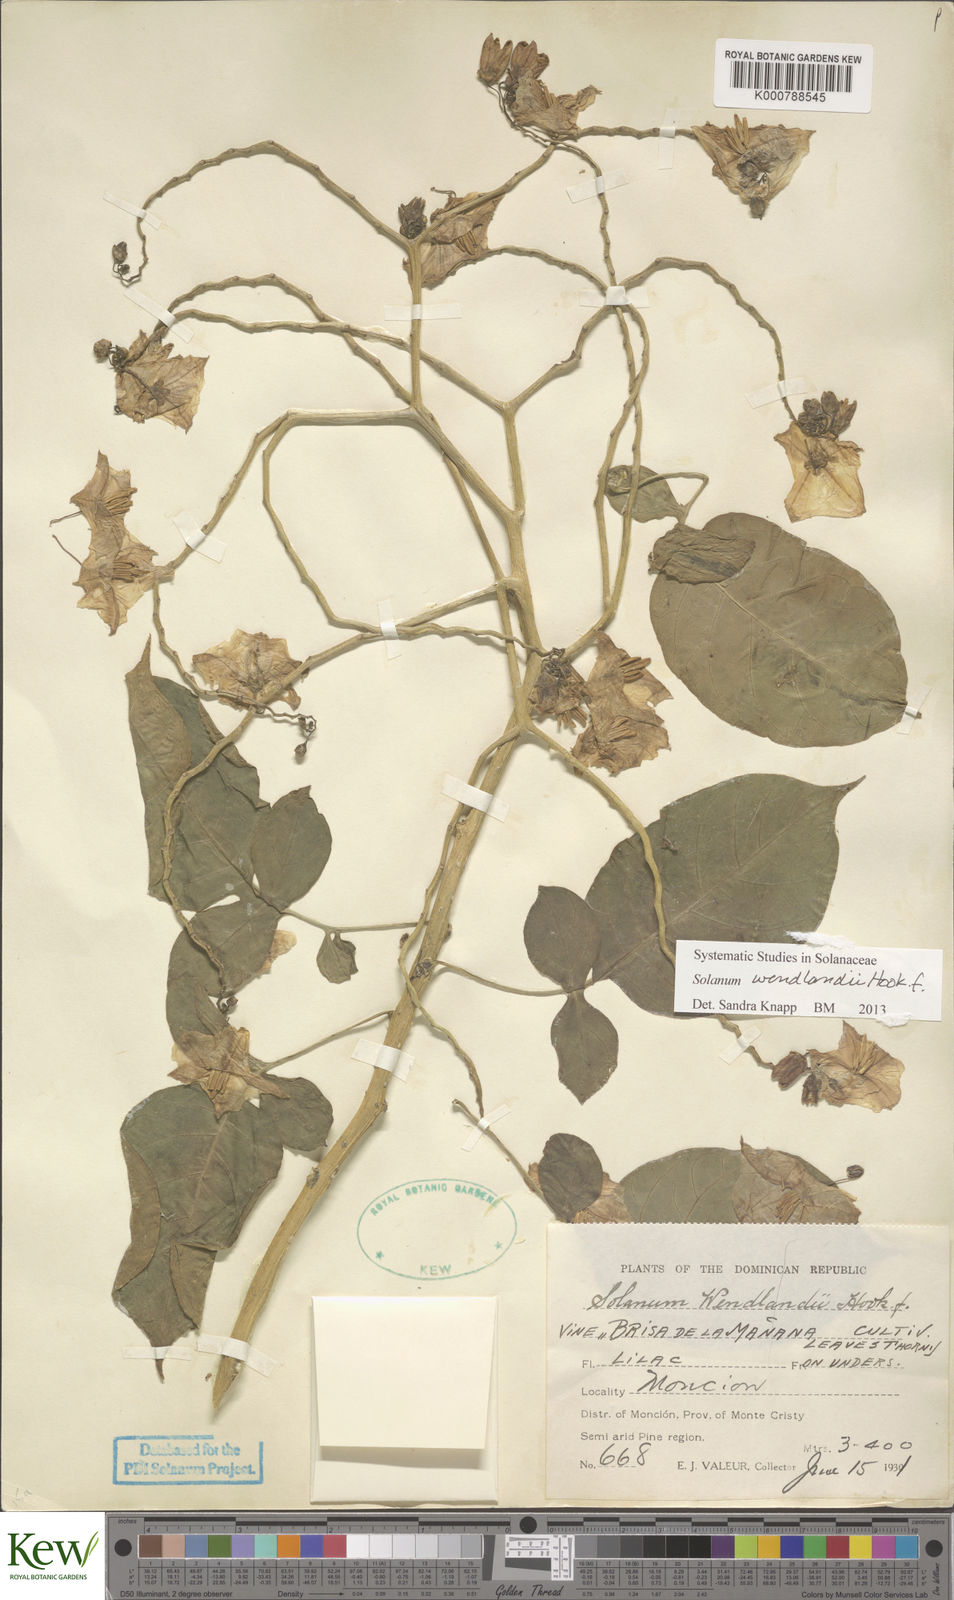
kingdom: Plantae
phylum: Tracheophyta
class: Magnoliopsida
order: Solanales
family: Solanaceae
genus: Solanum
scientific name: Solanum wendlandii
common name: Costa rican nightshade
